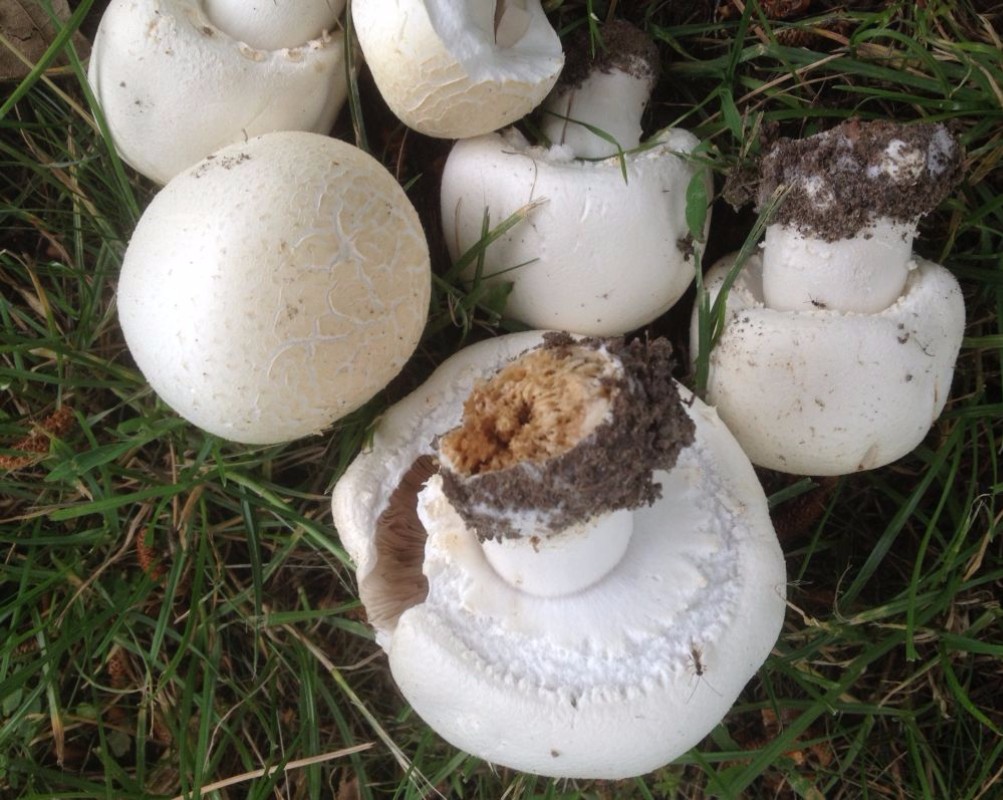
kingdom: Fungi
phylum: Basidiomycota
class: Agaricomycetes
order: Agaricales
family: Agaricaceae
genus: Agaricus
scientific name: Agaricus arvensis
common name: ager-champignon
